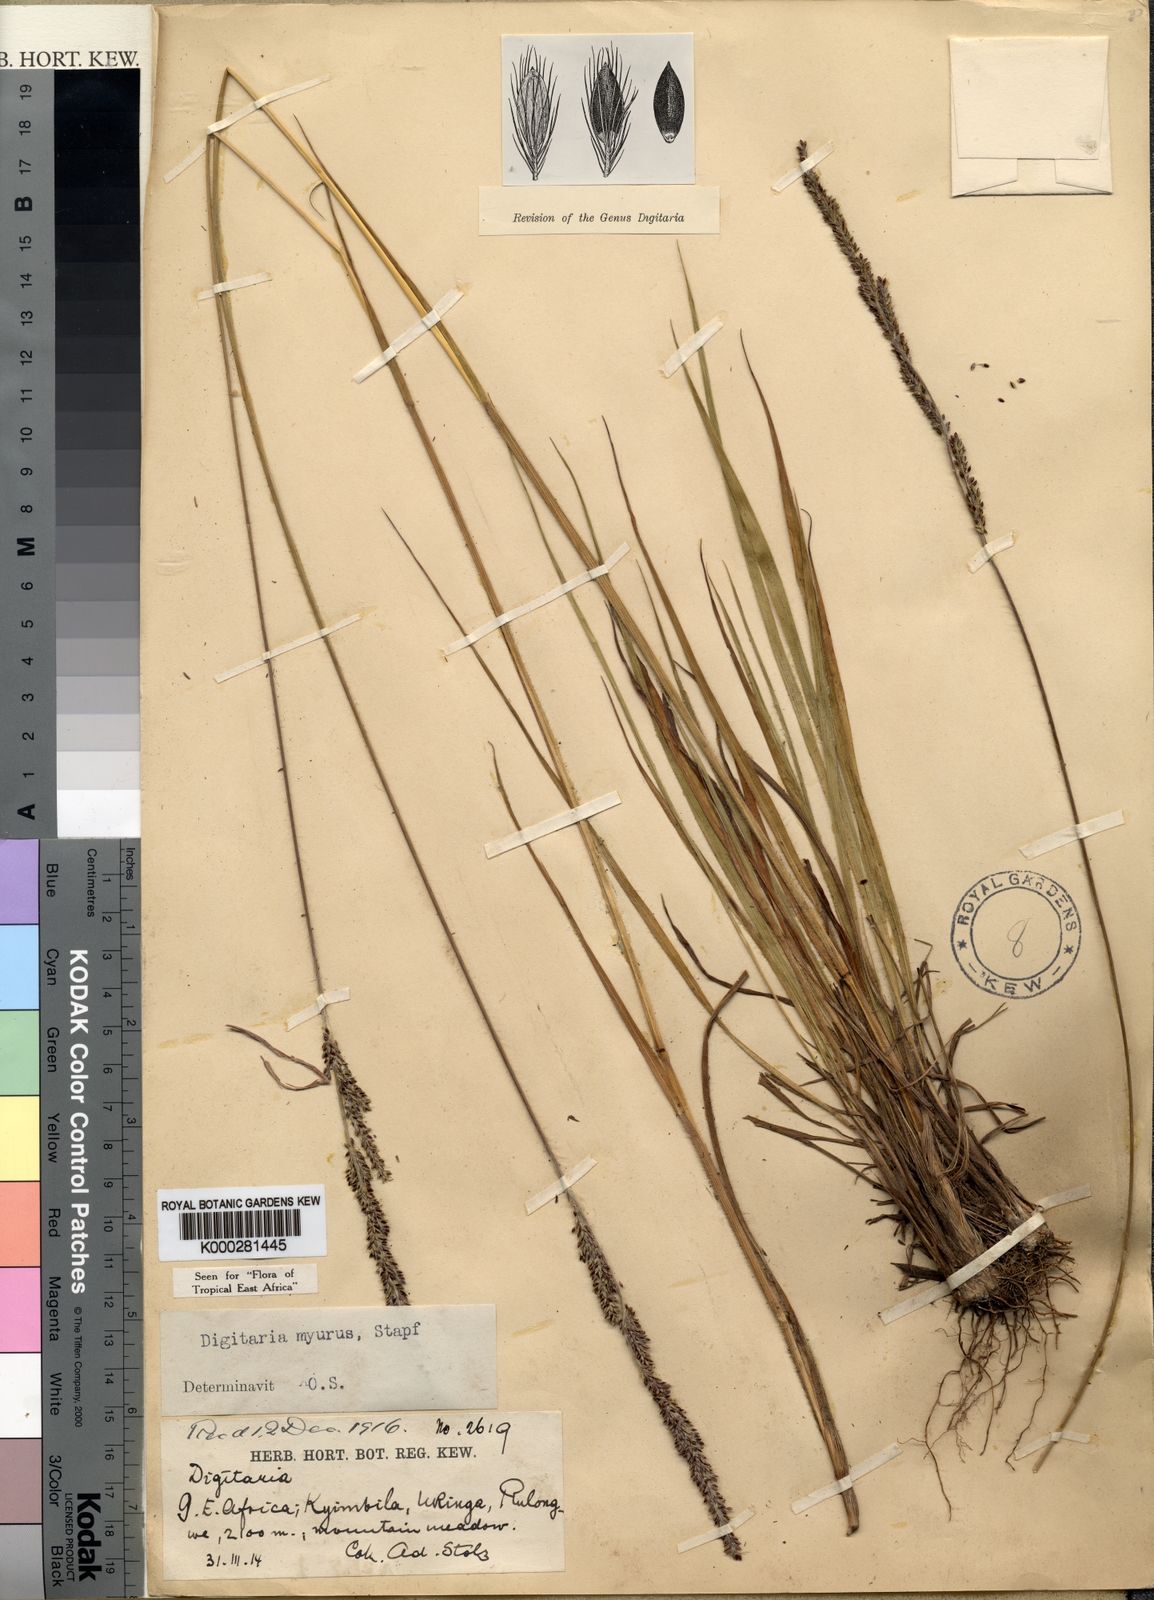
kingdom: Plantae
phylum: Tracheophyta
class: Liliopsida
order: Poales
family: Poaceae
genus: Digitaria
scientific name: Digitaria myurus
